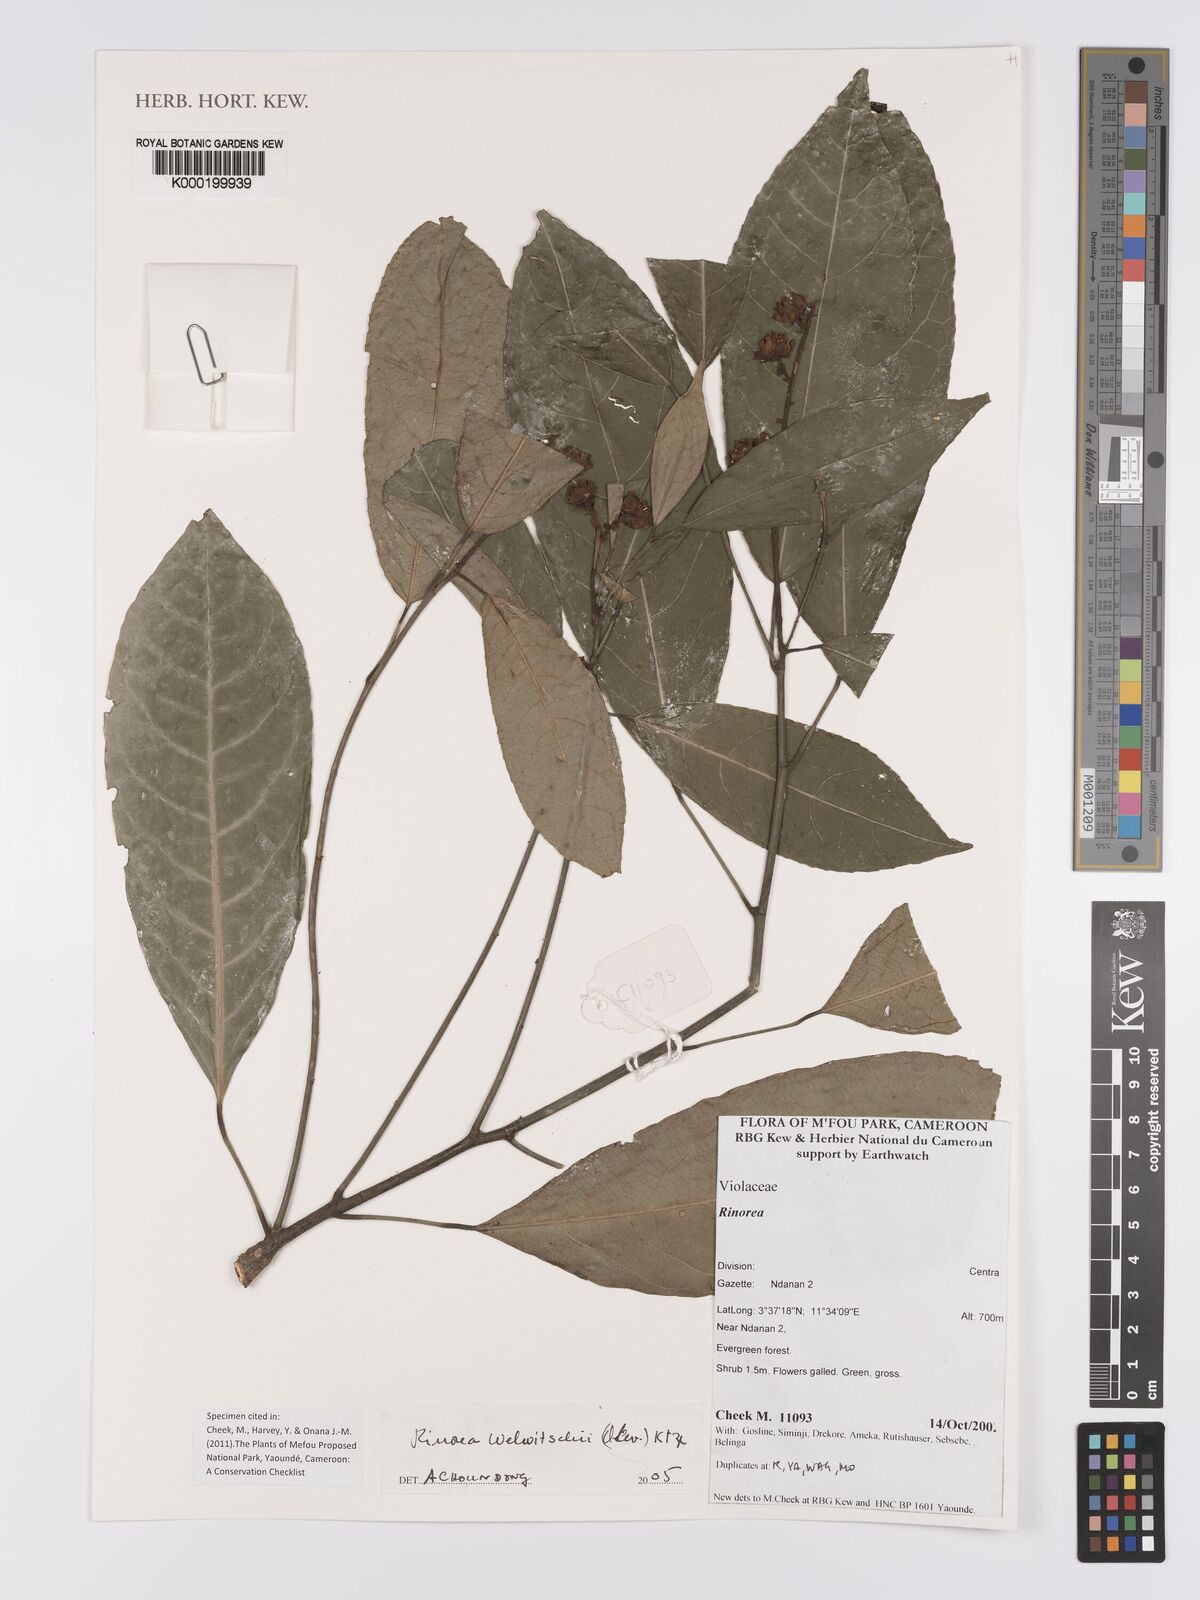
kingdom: Plantae
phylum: Tracheophyta
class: Magnoliopsida
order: Malpighiales
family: Violaceae
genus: Rinorea
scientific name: Rinorea welwitschii
